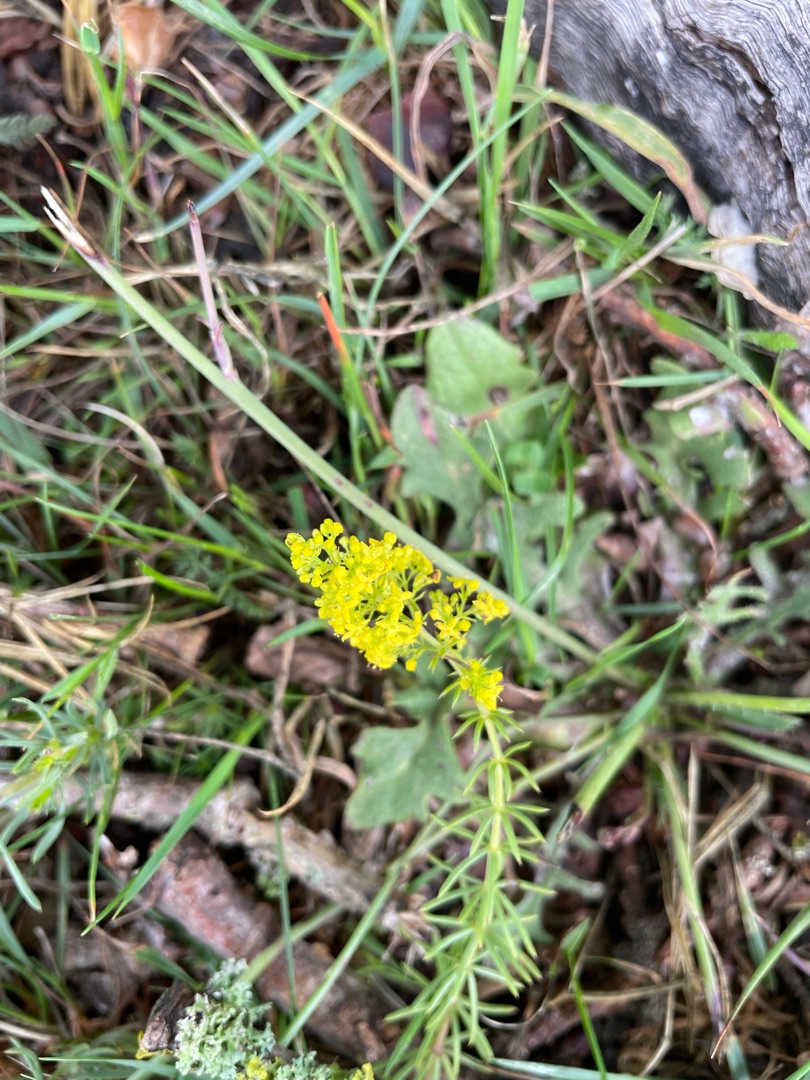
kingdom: Plantae
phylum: Tracheophyta
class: Magnoliopsida
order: Gentianales
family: Rubiaceae
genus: Galium
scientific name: Galium verum
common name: Gul snerre
